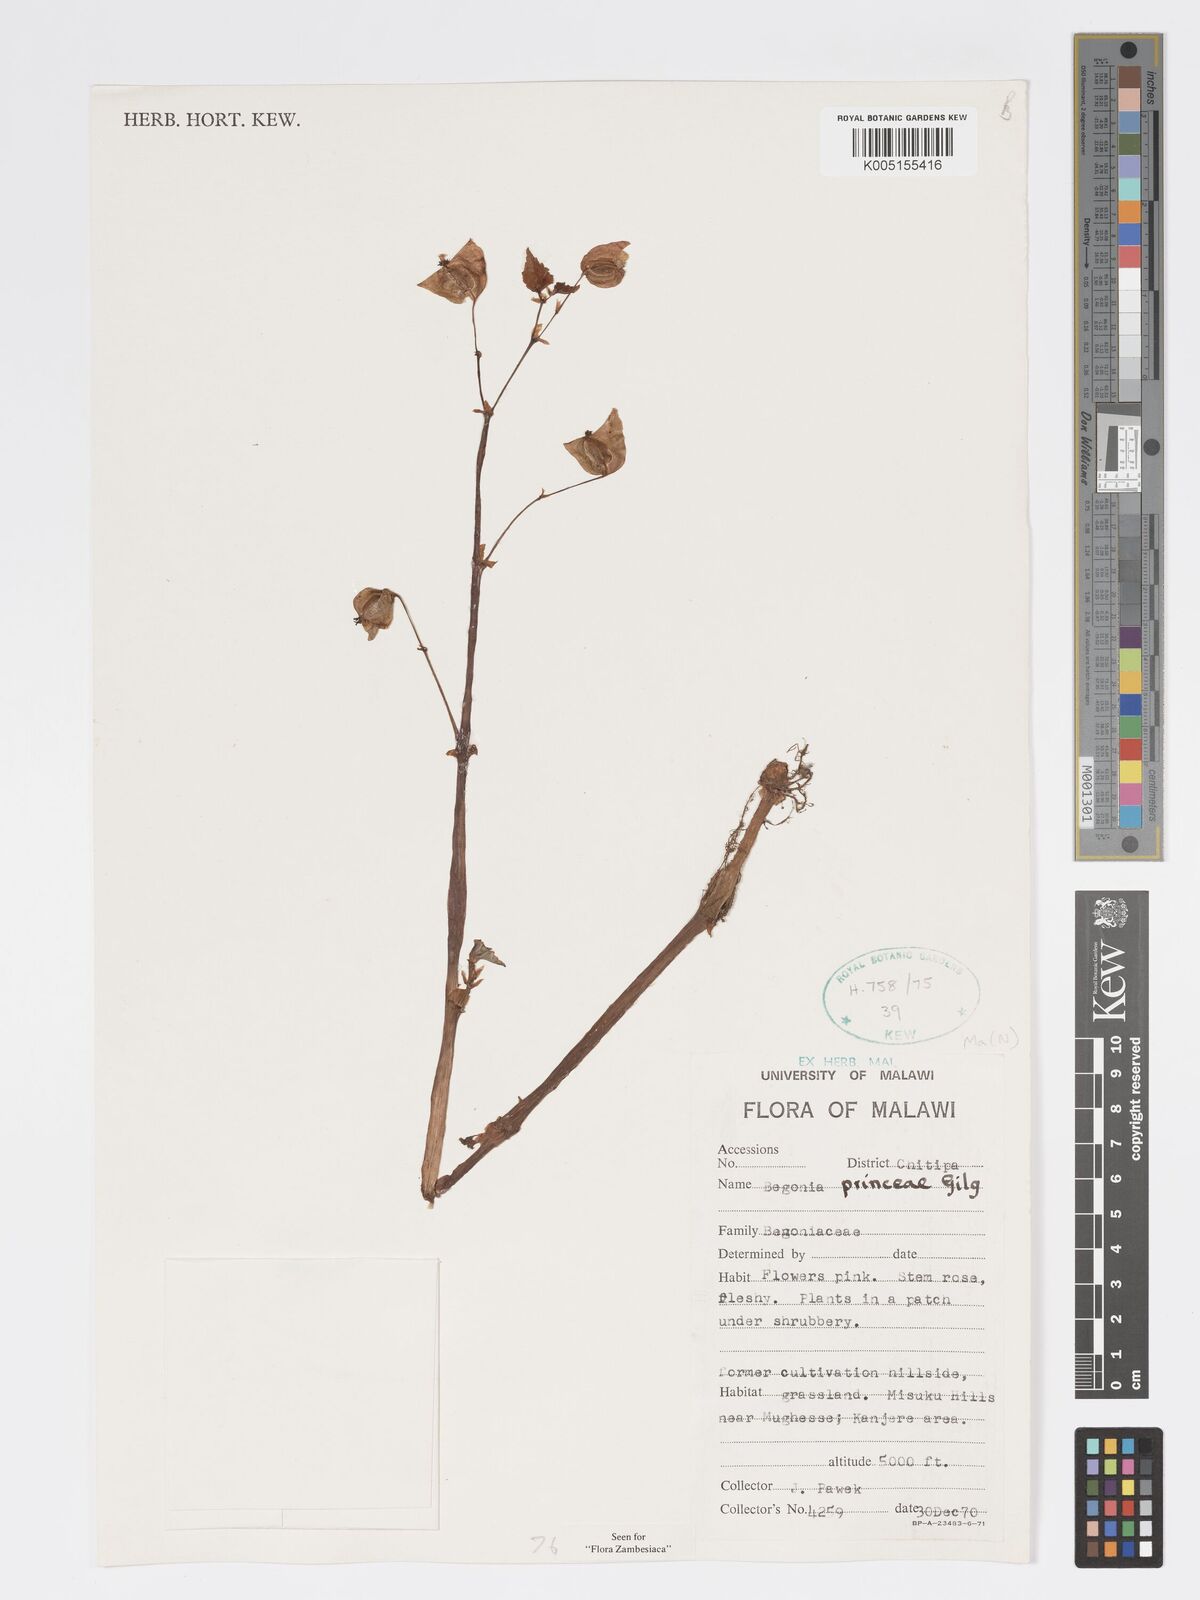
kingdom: Plantae
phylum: Tracheophyta
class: Magnoliopsida
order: Cucurbitales
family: Begoniaceae
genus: Begonia
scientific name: Begonia princeae
